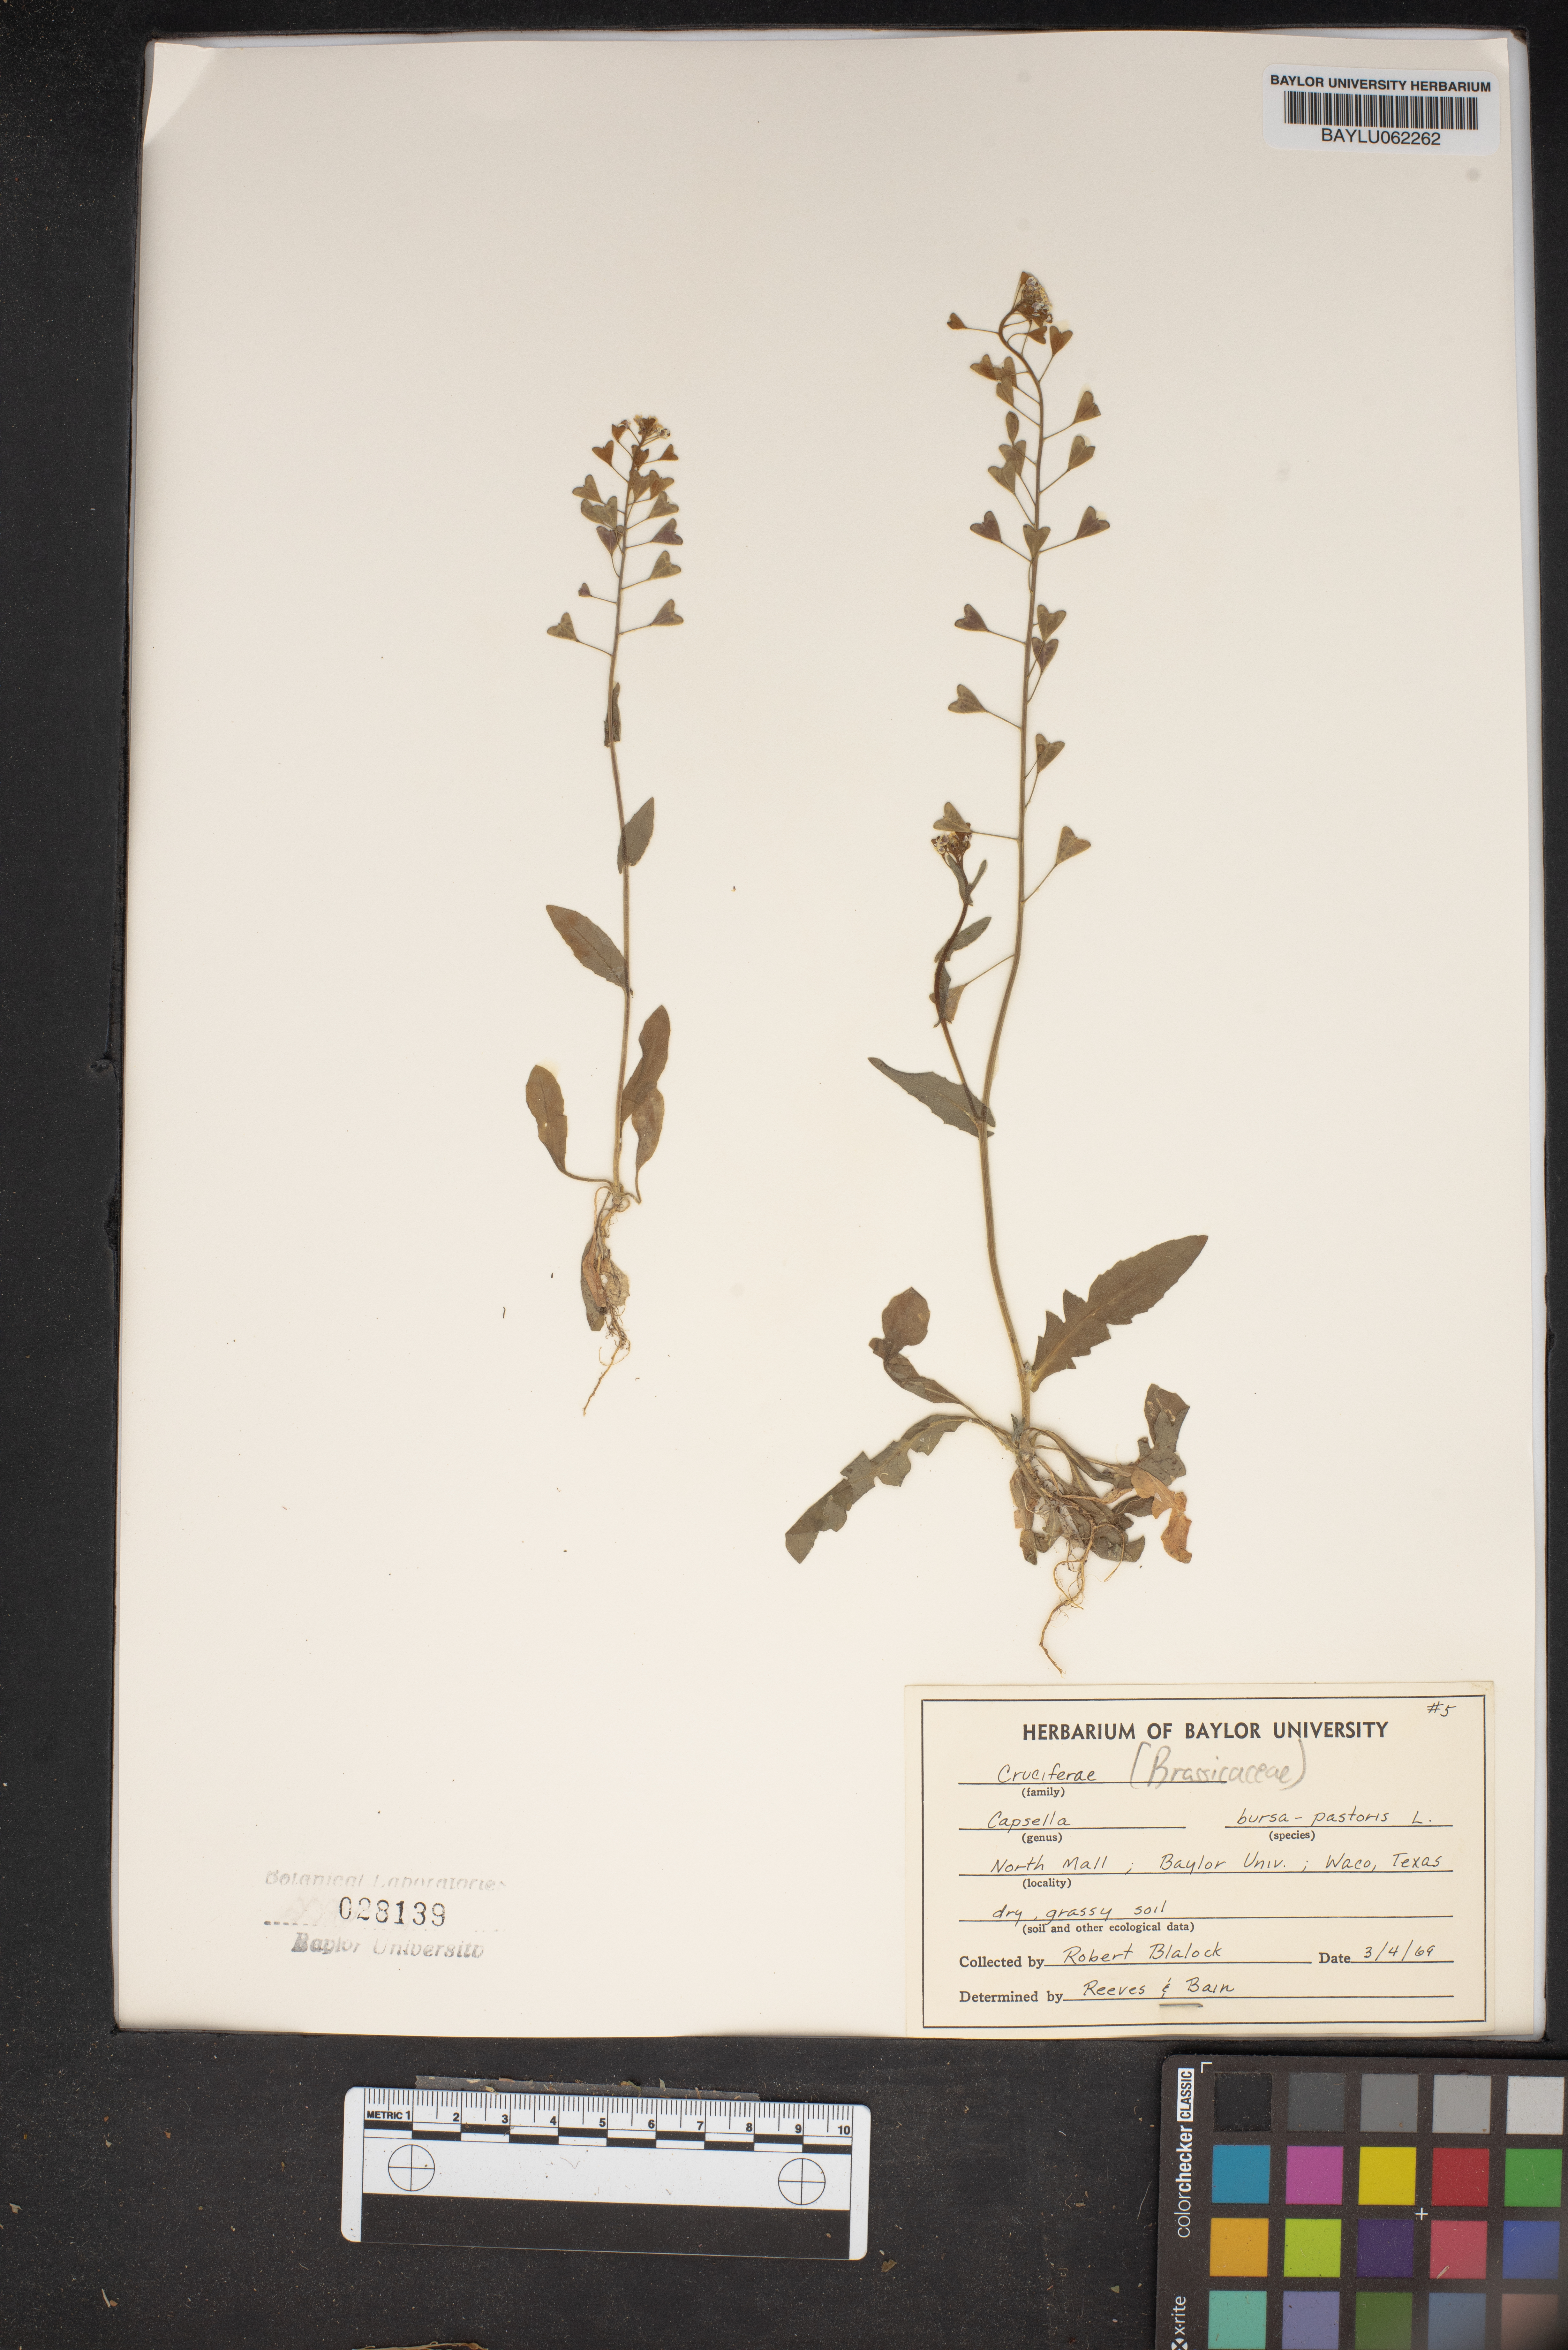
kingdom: Plantae
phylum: Tracheophyta
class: Magnoliopsida
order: Brassicales
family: Brassicaceae
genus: Capsella
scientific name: Capsella bursa-pastoris
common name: Shepherd's purse
